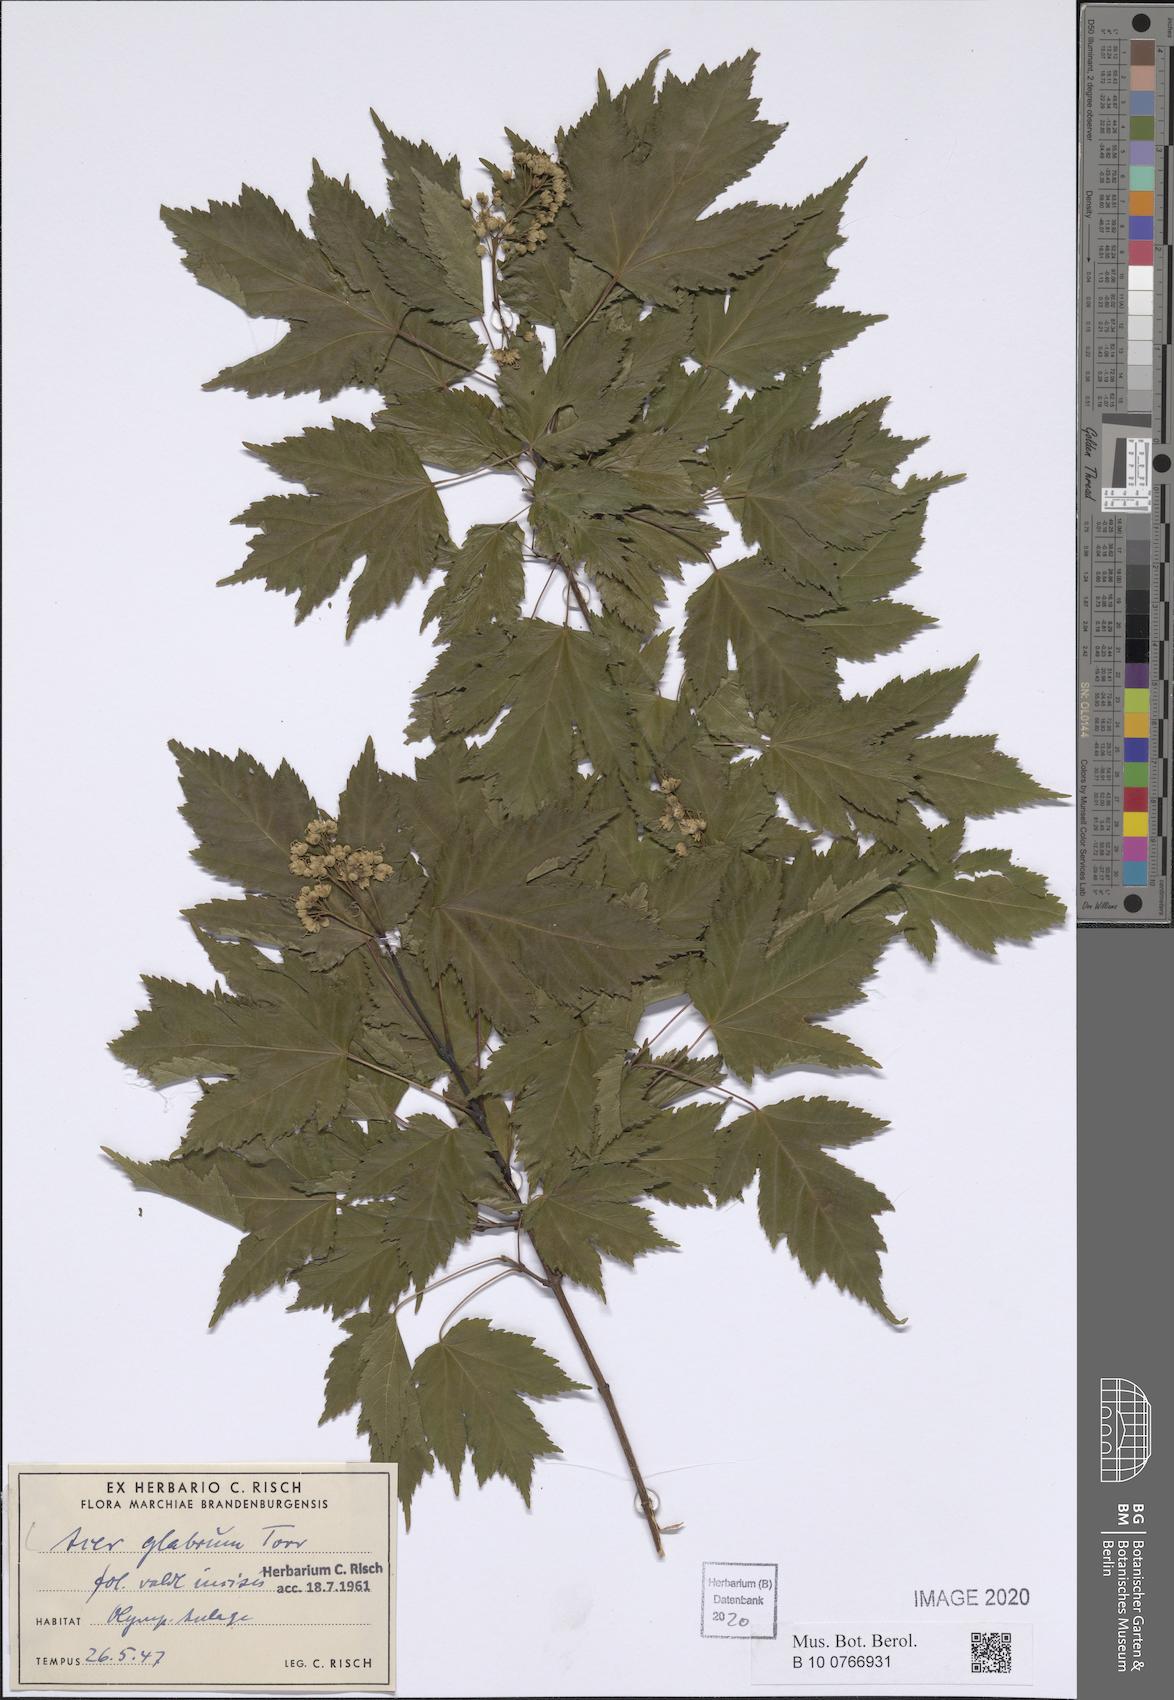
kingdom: Plantae
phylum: Tracheophyta
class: Magnoliopsida
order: Sapindales
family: Sapindaceae
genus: Acer
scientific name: Acer glabrum
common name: Rocky mountain maple
